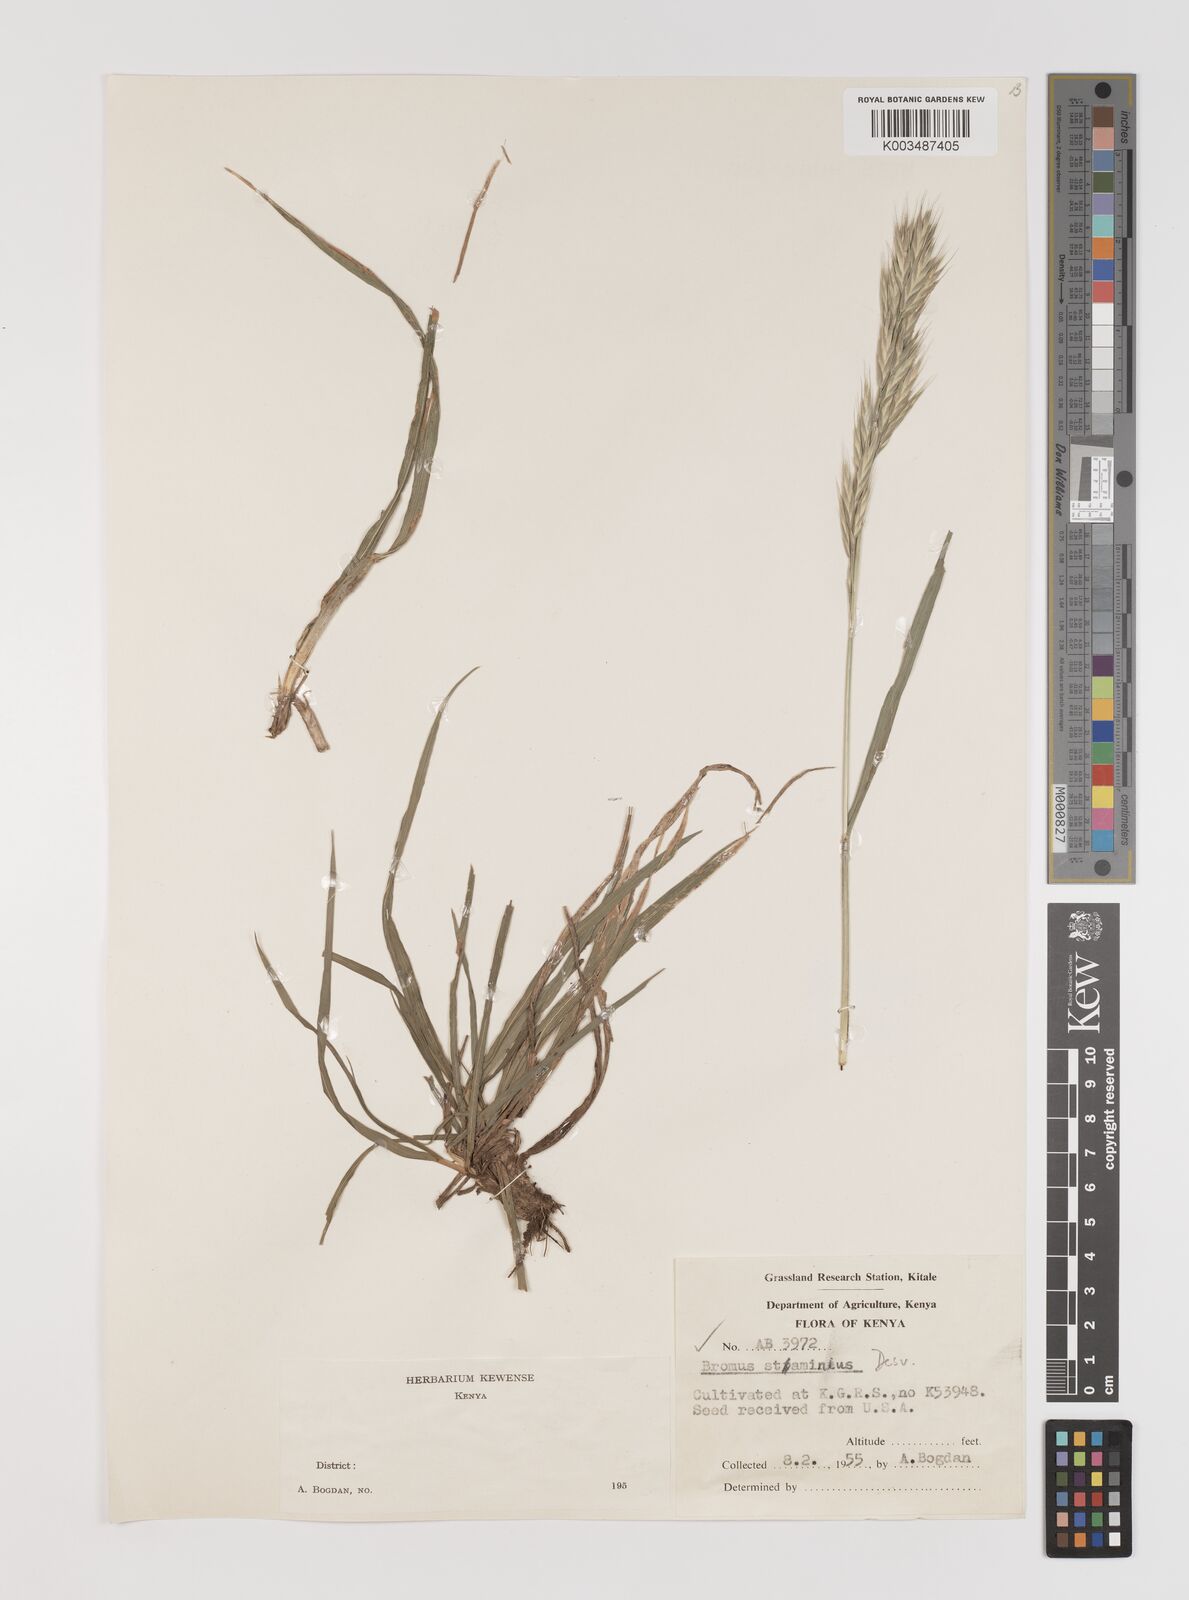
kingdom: Plantae
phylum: Tracheophyta
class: Liliopsida
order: Poales
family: Poaceae
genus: Bromus
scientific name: Bromus cebadilla
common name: Southern brome
